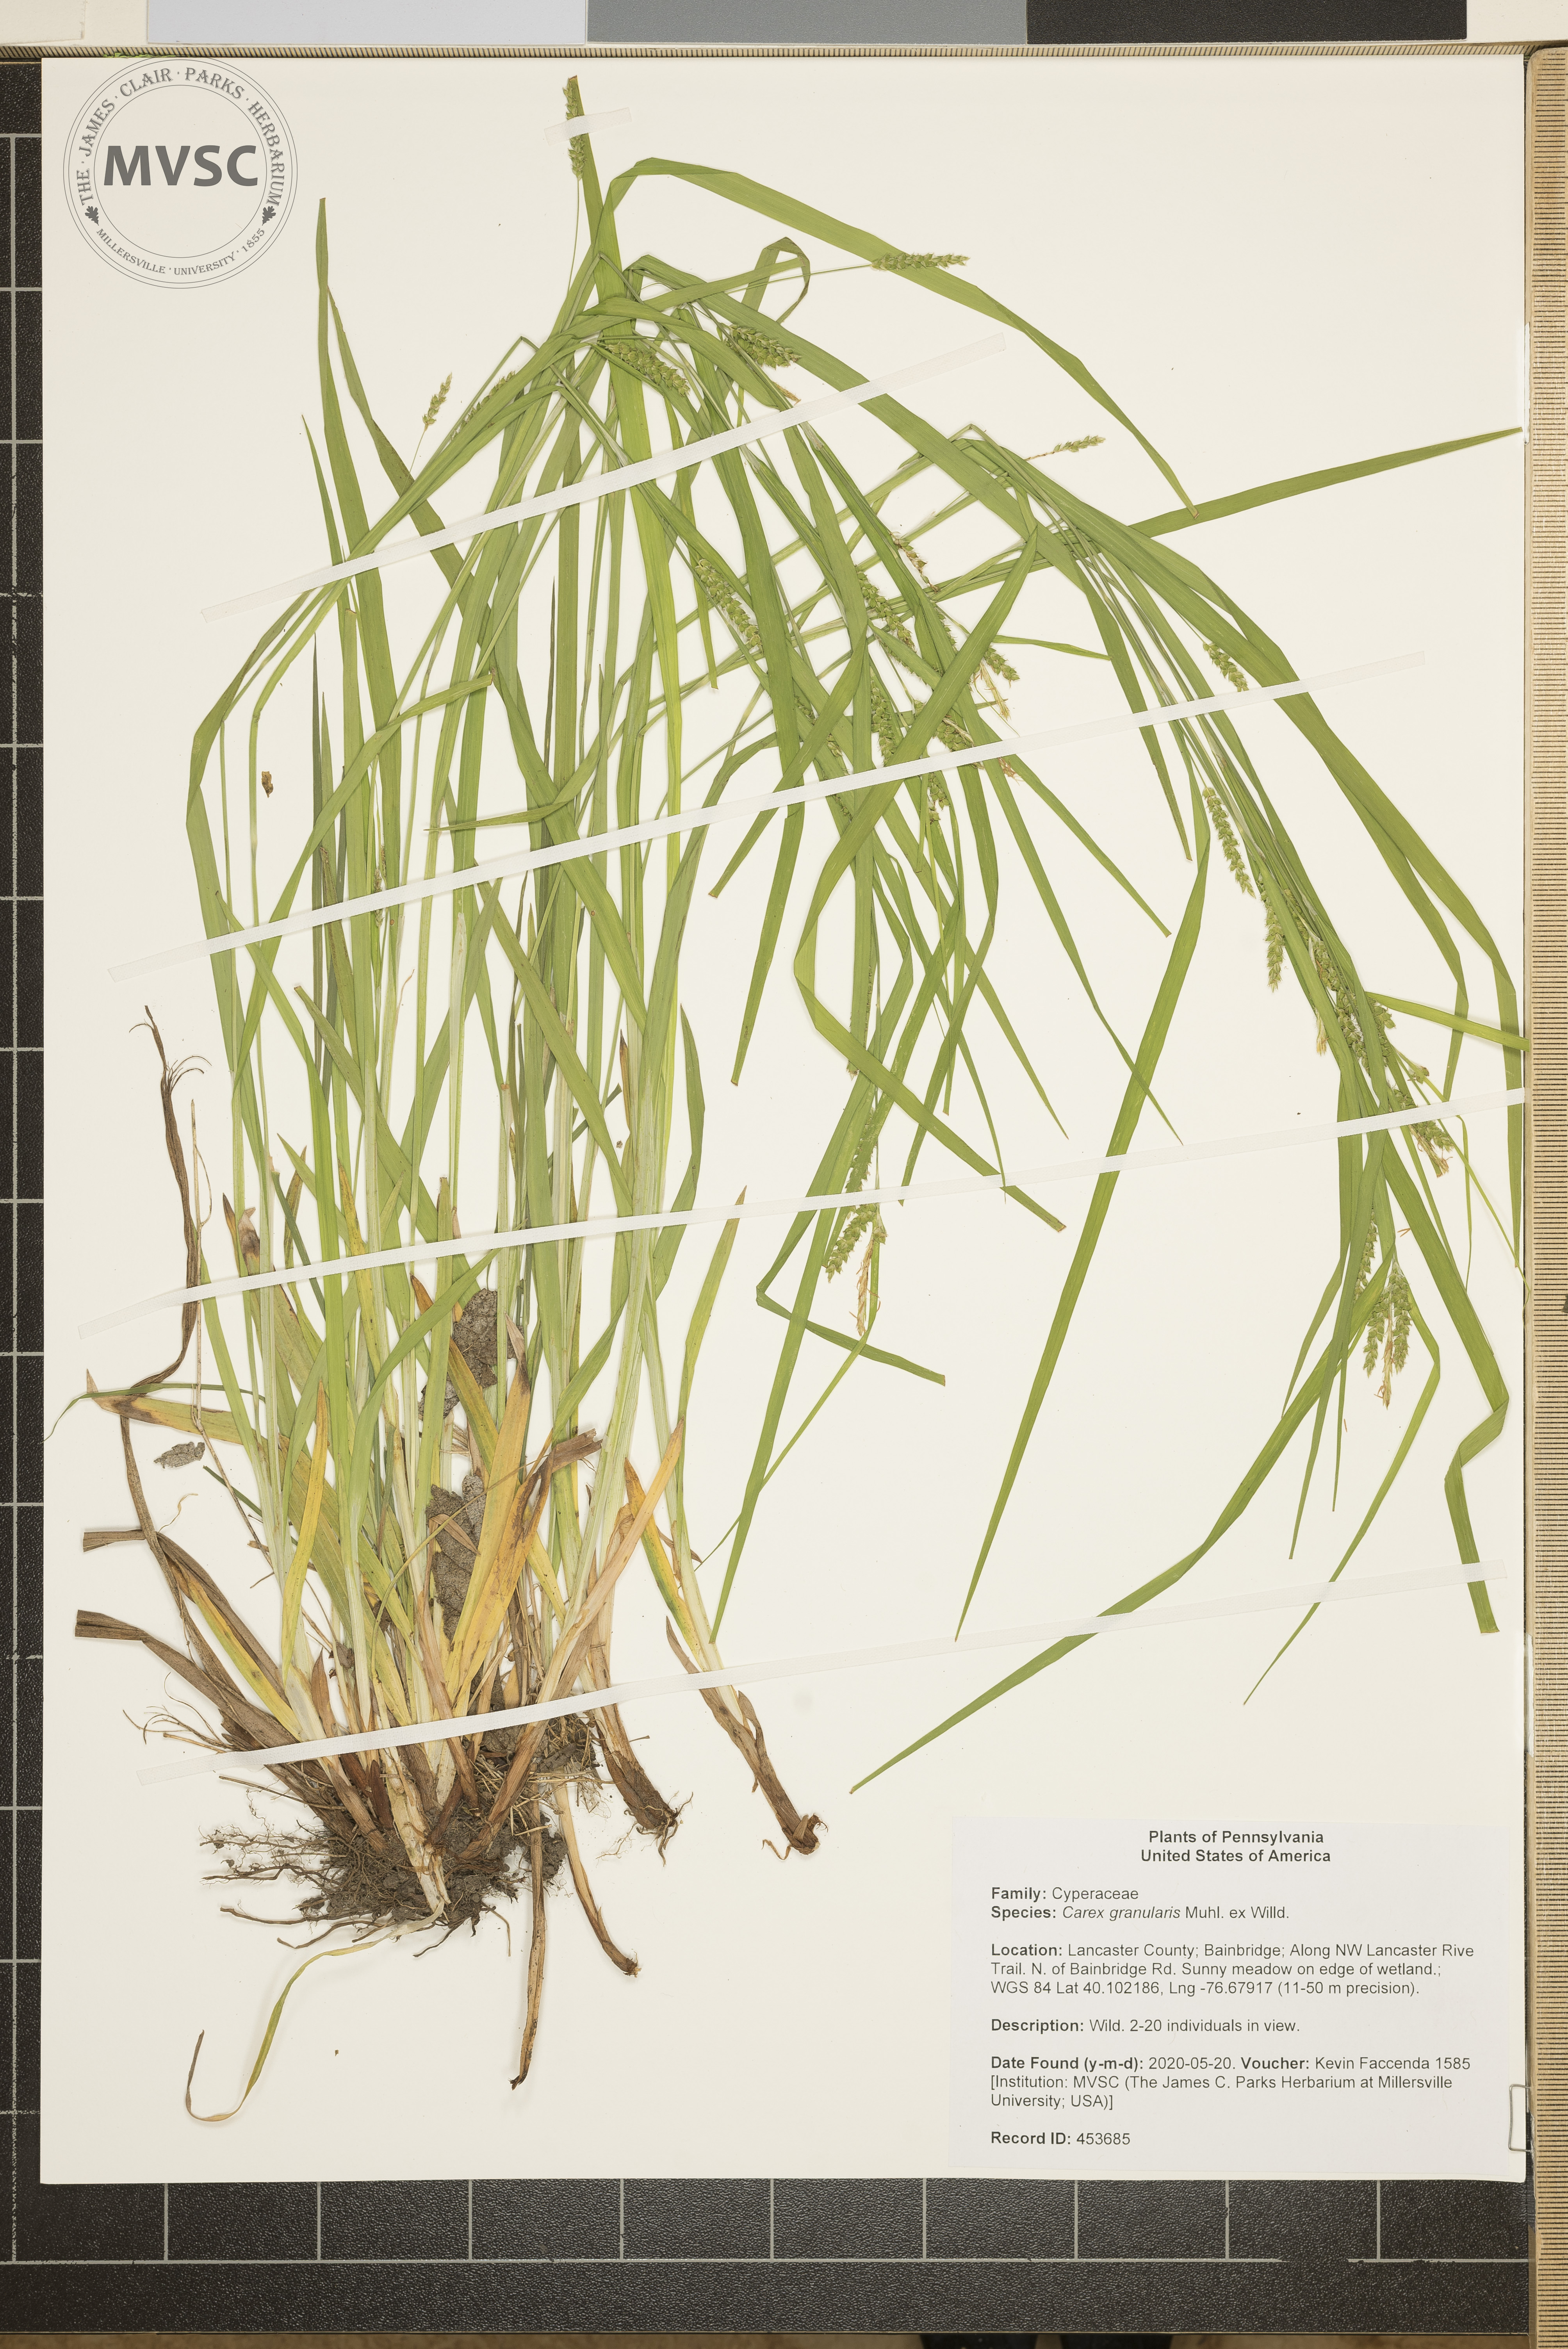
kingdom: Plantae
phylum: Tracheophyta
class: Liliopsida
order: Poales
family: Cyperaceae
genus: Carex
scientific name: Carex granularis
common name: Granular sedge
